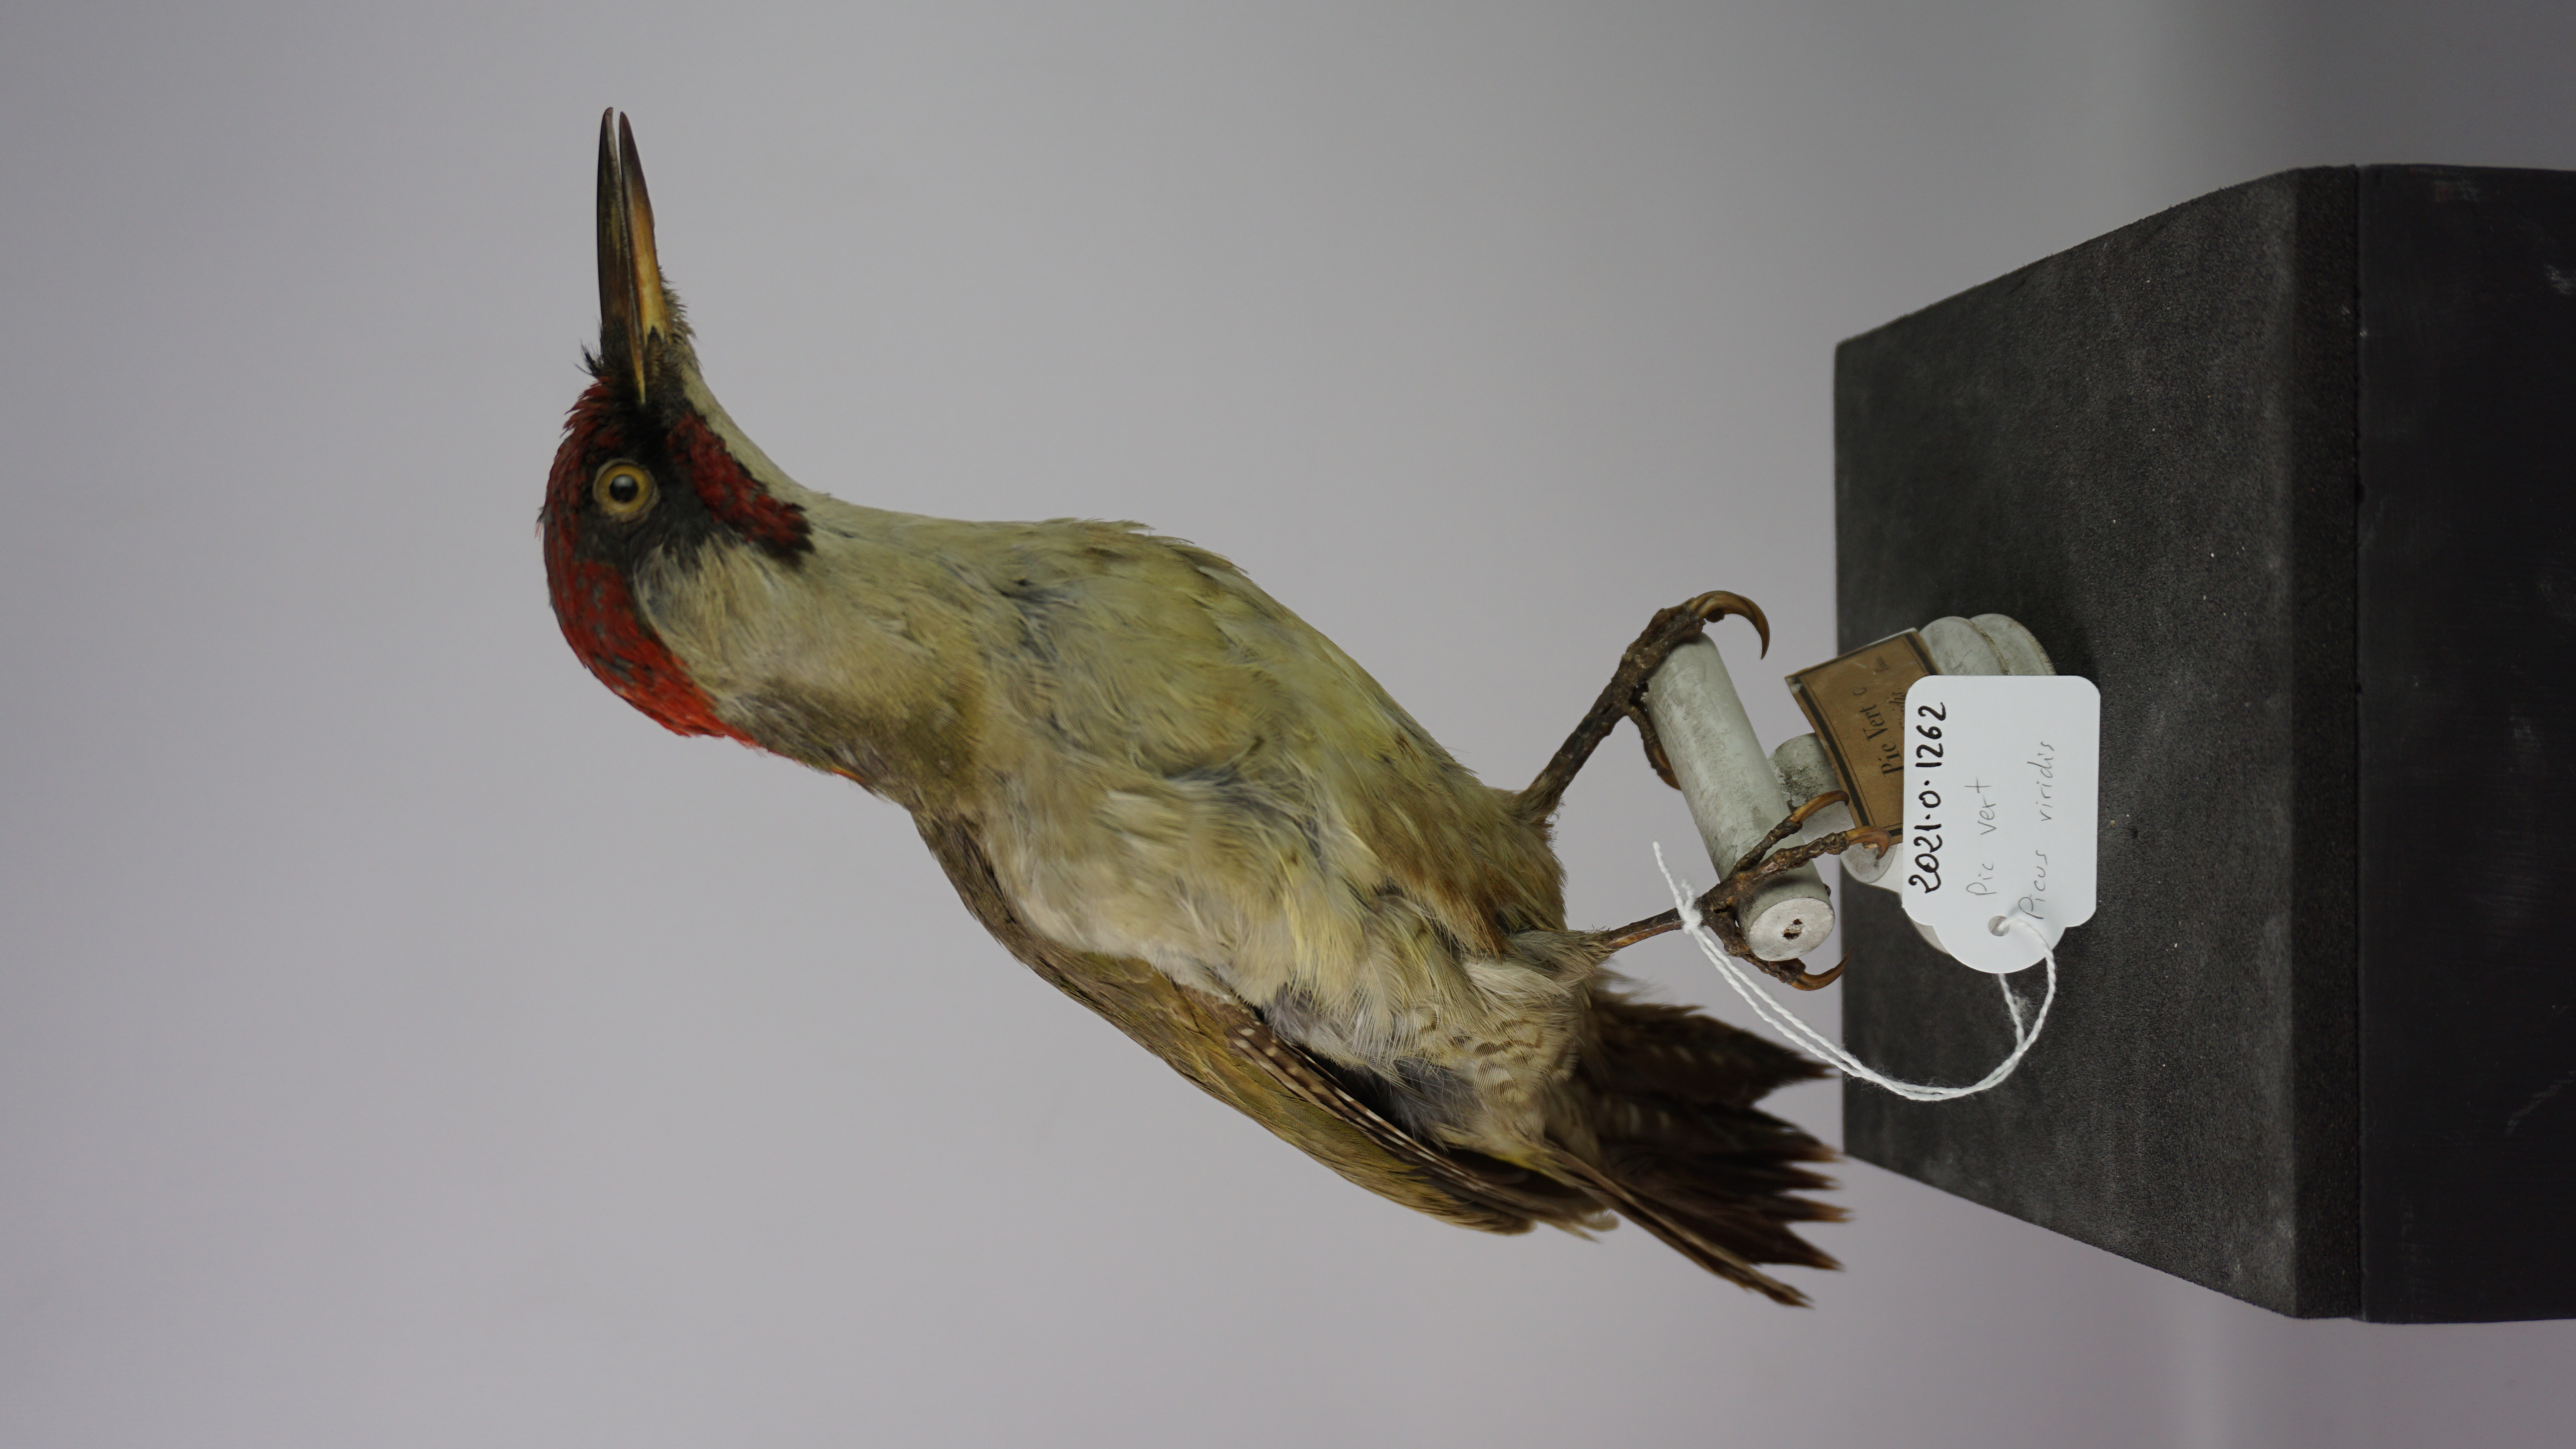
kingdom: Animalia
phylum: Chordata
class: Aves
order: Piciformes
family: Picidae
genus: Picus
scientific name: Picus viridis
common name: European green woodpecker
